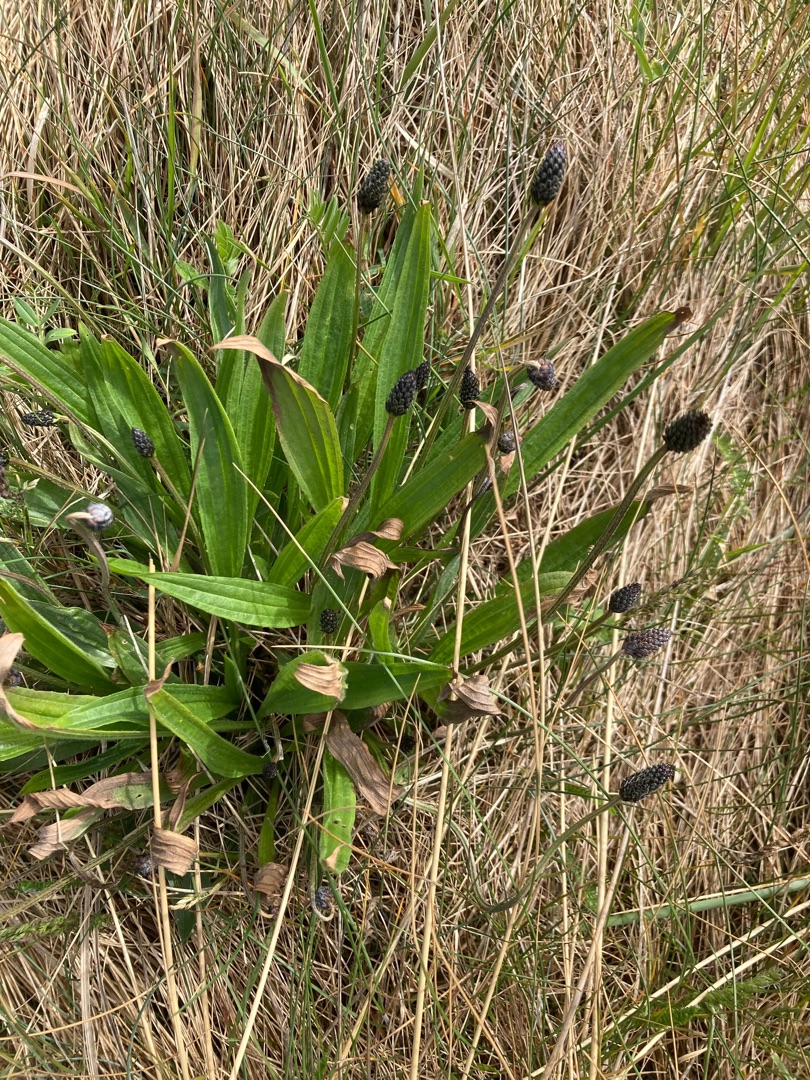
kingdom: Plantae
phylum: Tracheophyta
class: Magnoliopsida
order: Lamiales
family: Plantaginaceae
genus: Plantago
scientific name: Plantago lanceolata
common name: Lancet-vejbred
